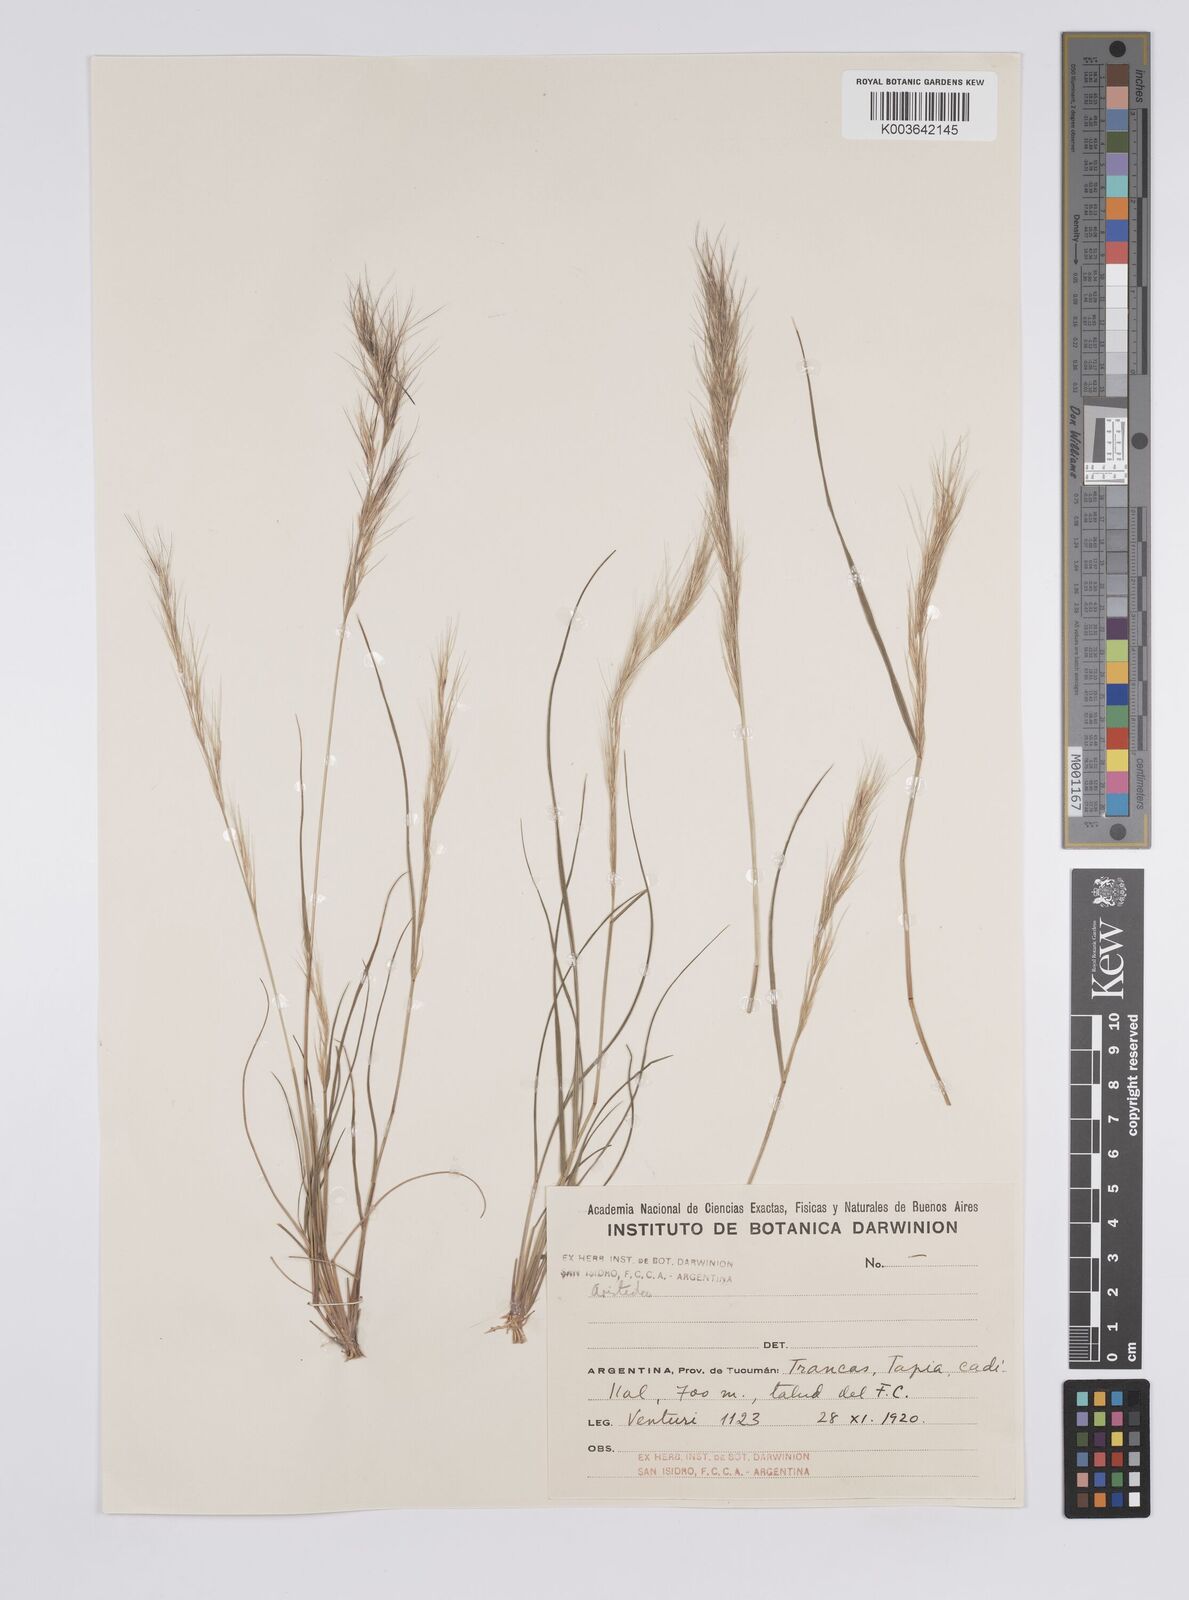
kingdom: Plantae
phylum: Tracheophyta
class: Liliopsida
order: Poales
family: Poaceae
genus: Aristida
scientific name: Aristida
